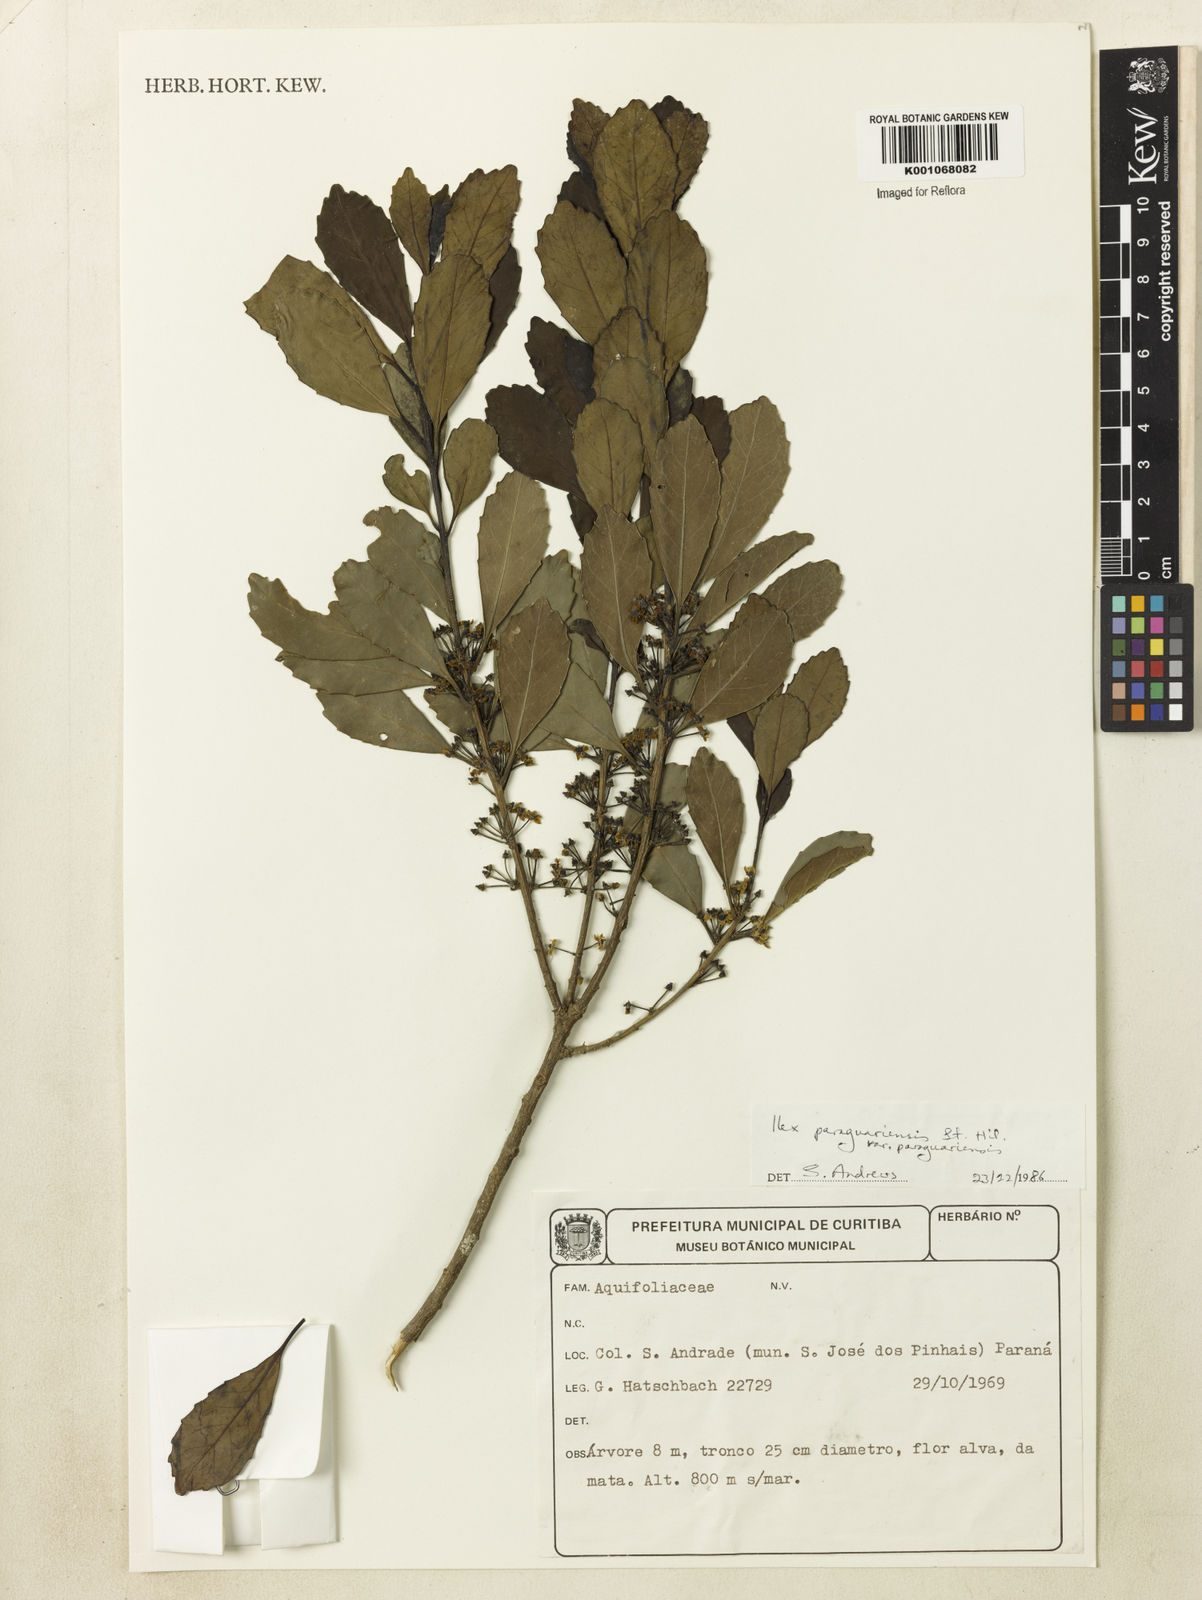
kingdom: Plantae
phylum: Tracheophyta
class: Magnoliopsida
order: Aquifoliales
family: Aquifoliaceae
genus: Ilex
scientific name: Ilex paraguariensis
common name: Paraguay tea
